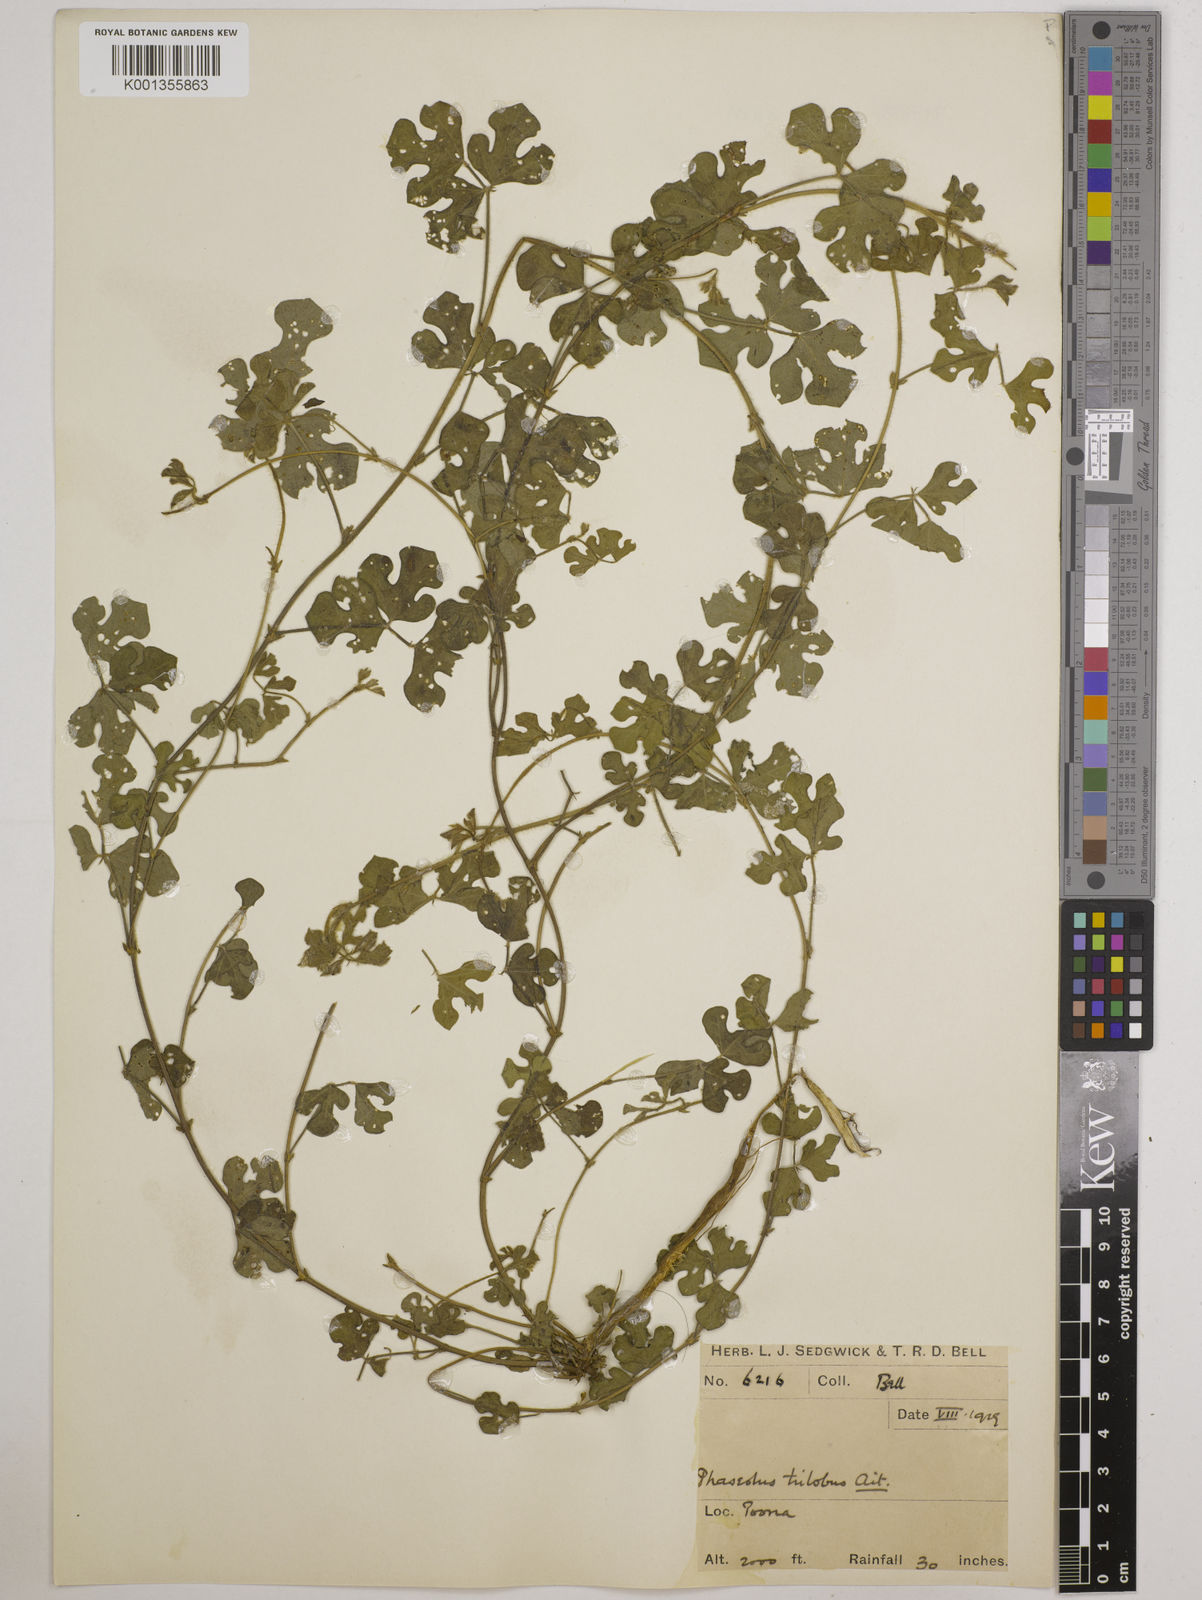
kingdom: Plantae
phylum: Tracheophyta
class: Magnoliopsida
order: Fabales
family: Fabaceae
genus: Vigna
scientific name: Vigna trilobata
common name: Jungli-bean
